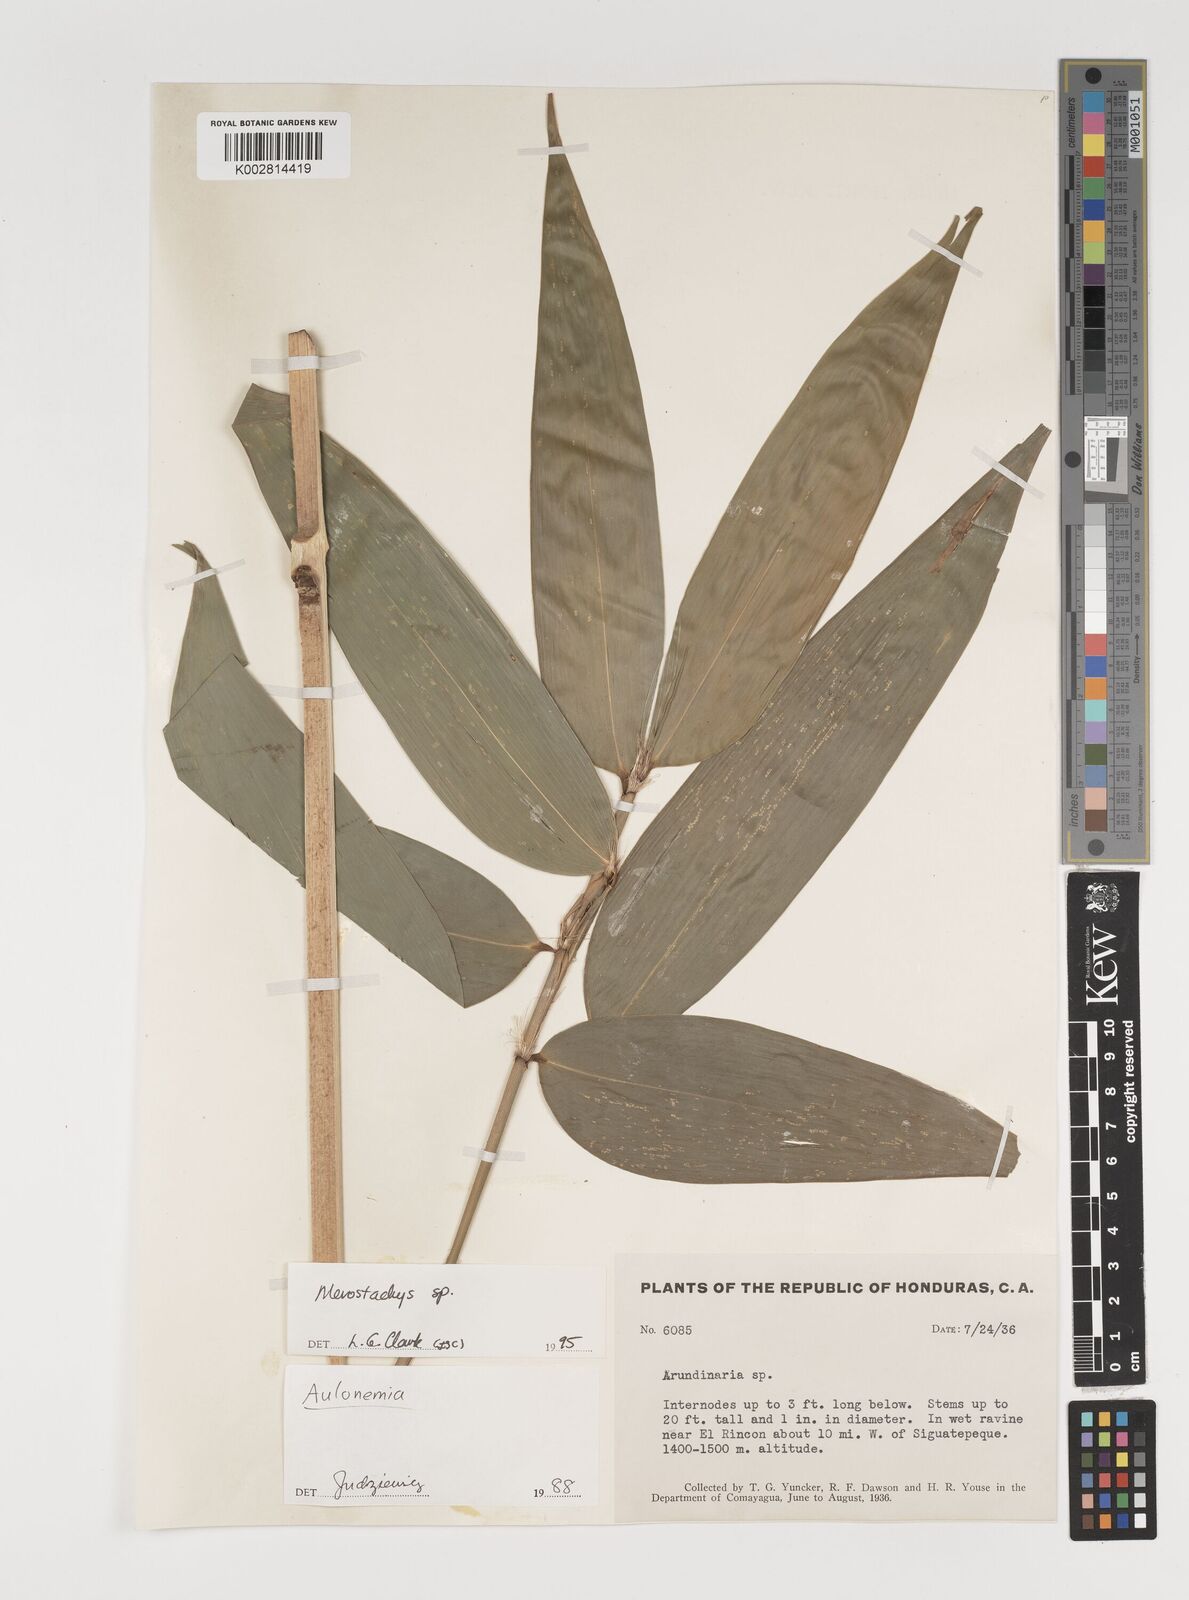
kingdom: Plantae
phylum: Tracheophyta
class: Liliopsida
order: Poales
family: Poaceae
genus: Merostachys
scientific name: Merostachys
